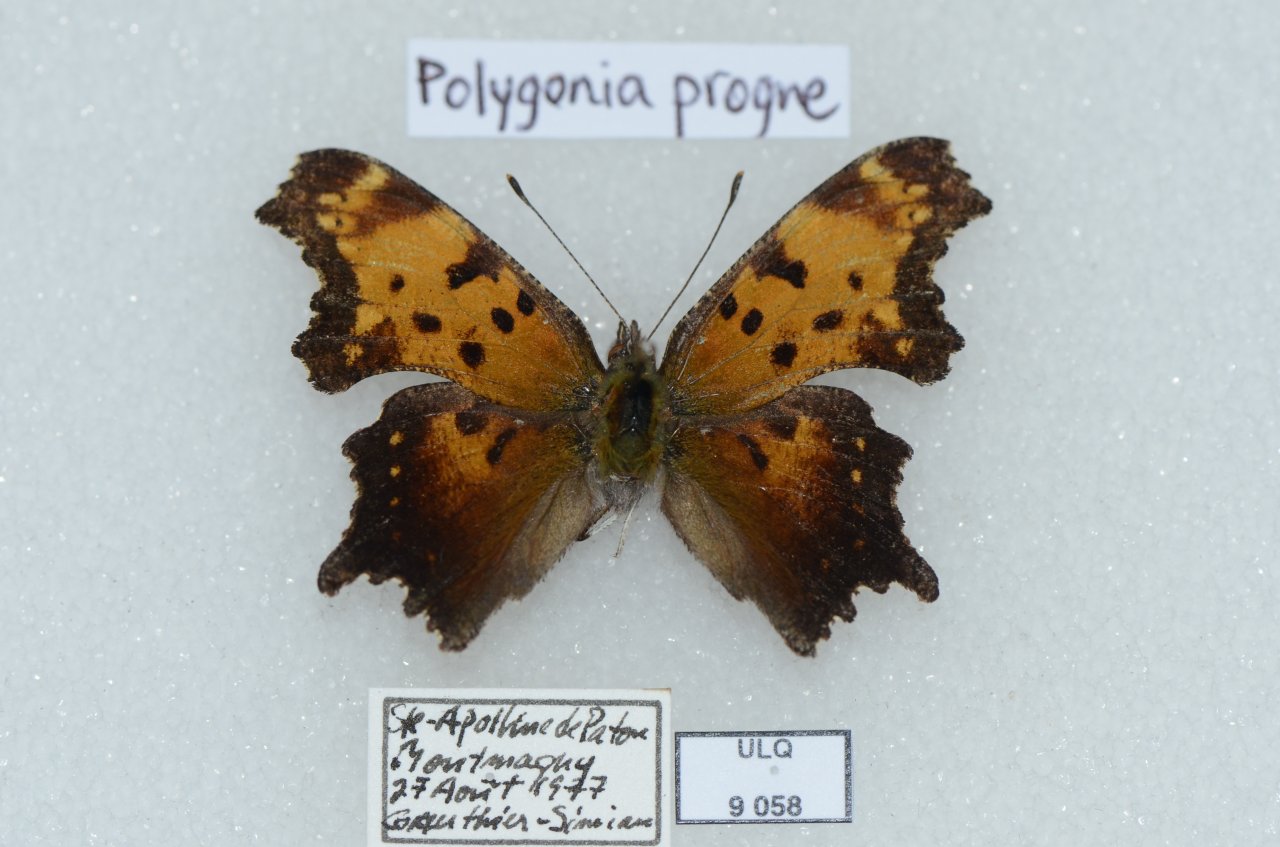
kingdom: Animalia
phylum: Arthropoda
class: Insecta
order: Lepidoptera
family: Nymphalidae
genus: Polygonia
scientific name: Polygonia progne
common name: Gray Comma
